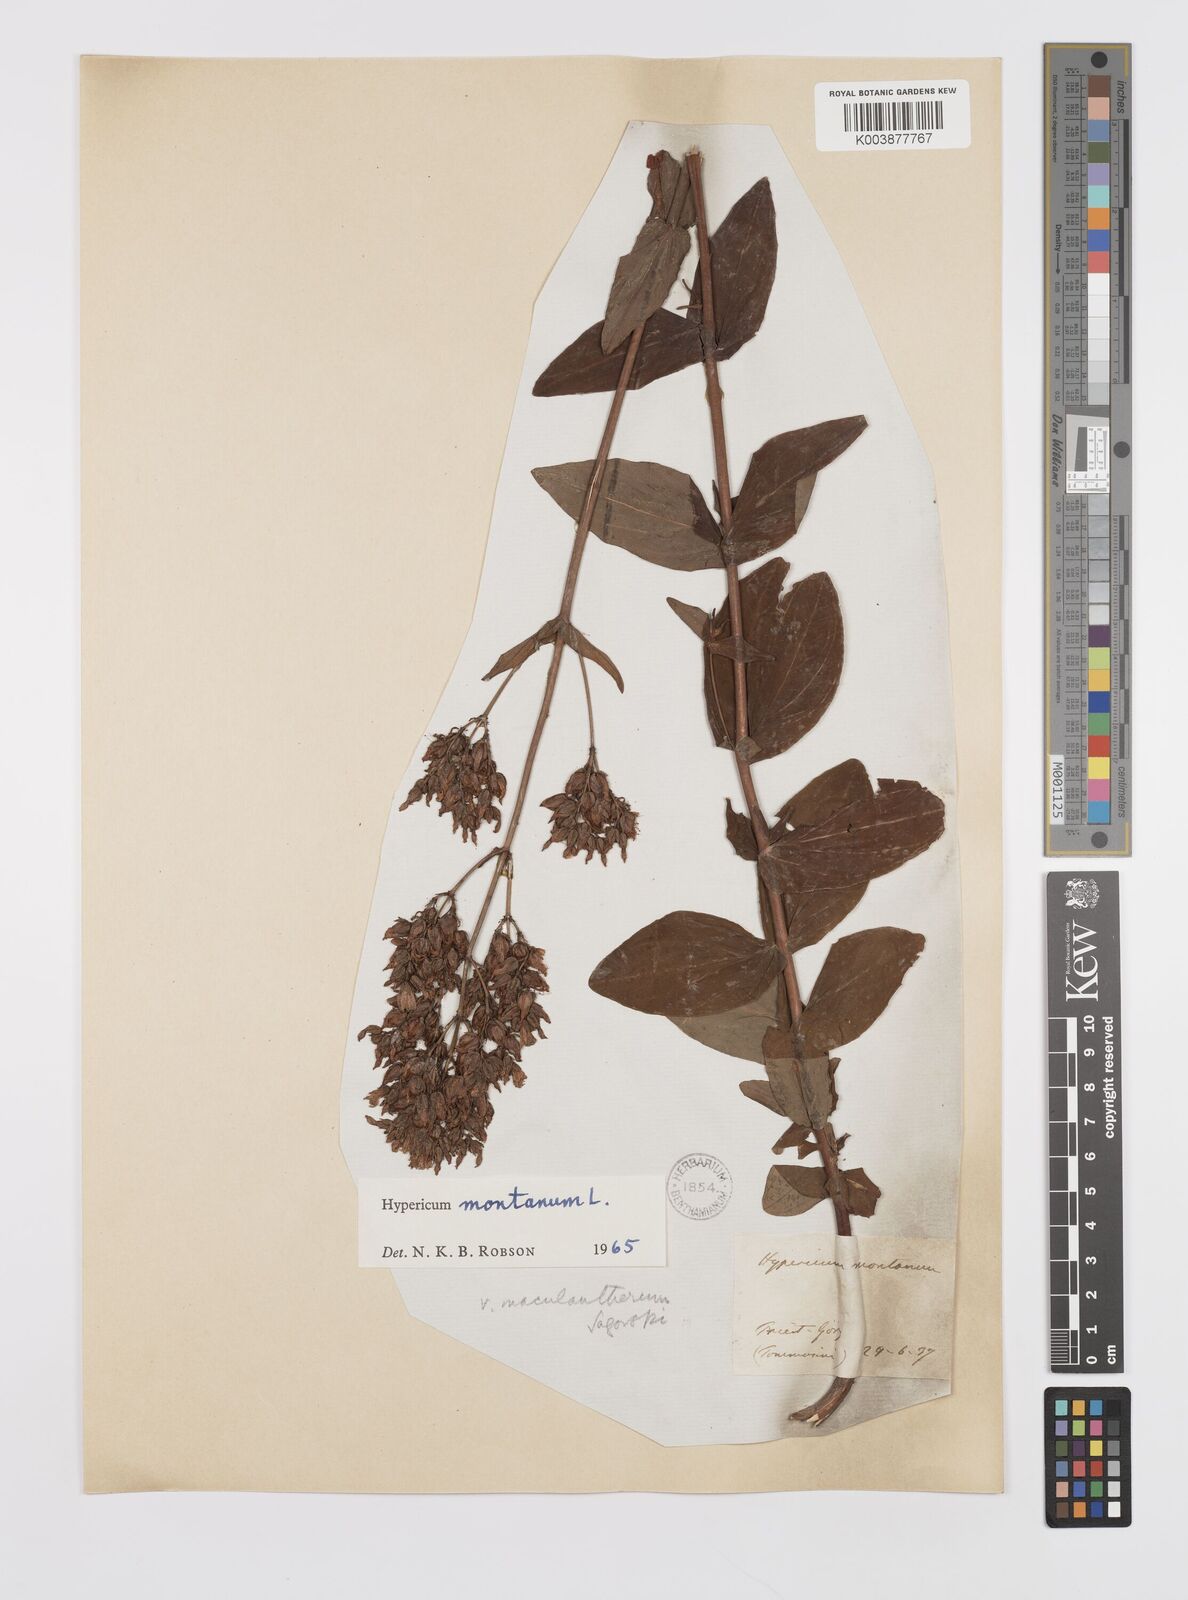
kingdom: Plantae
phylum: Tracheophyta
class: Magnoliopsida
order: Malpighiales
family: Hypericaceae
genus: Hypericum
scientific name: Hypericum montanum
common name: Pale st. john's-wort
